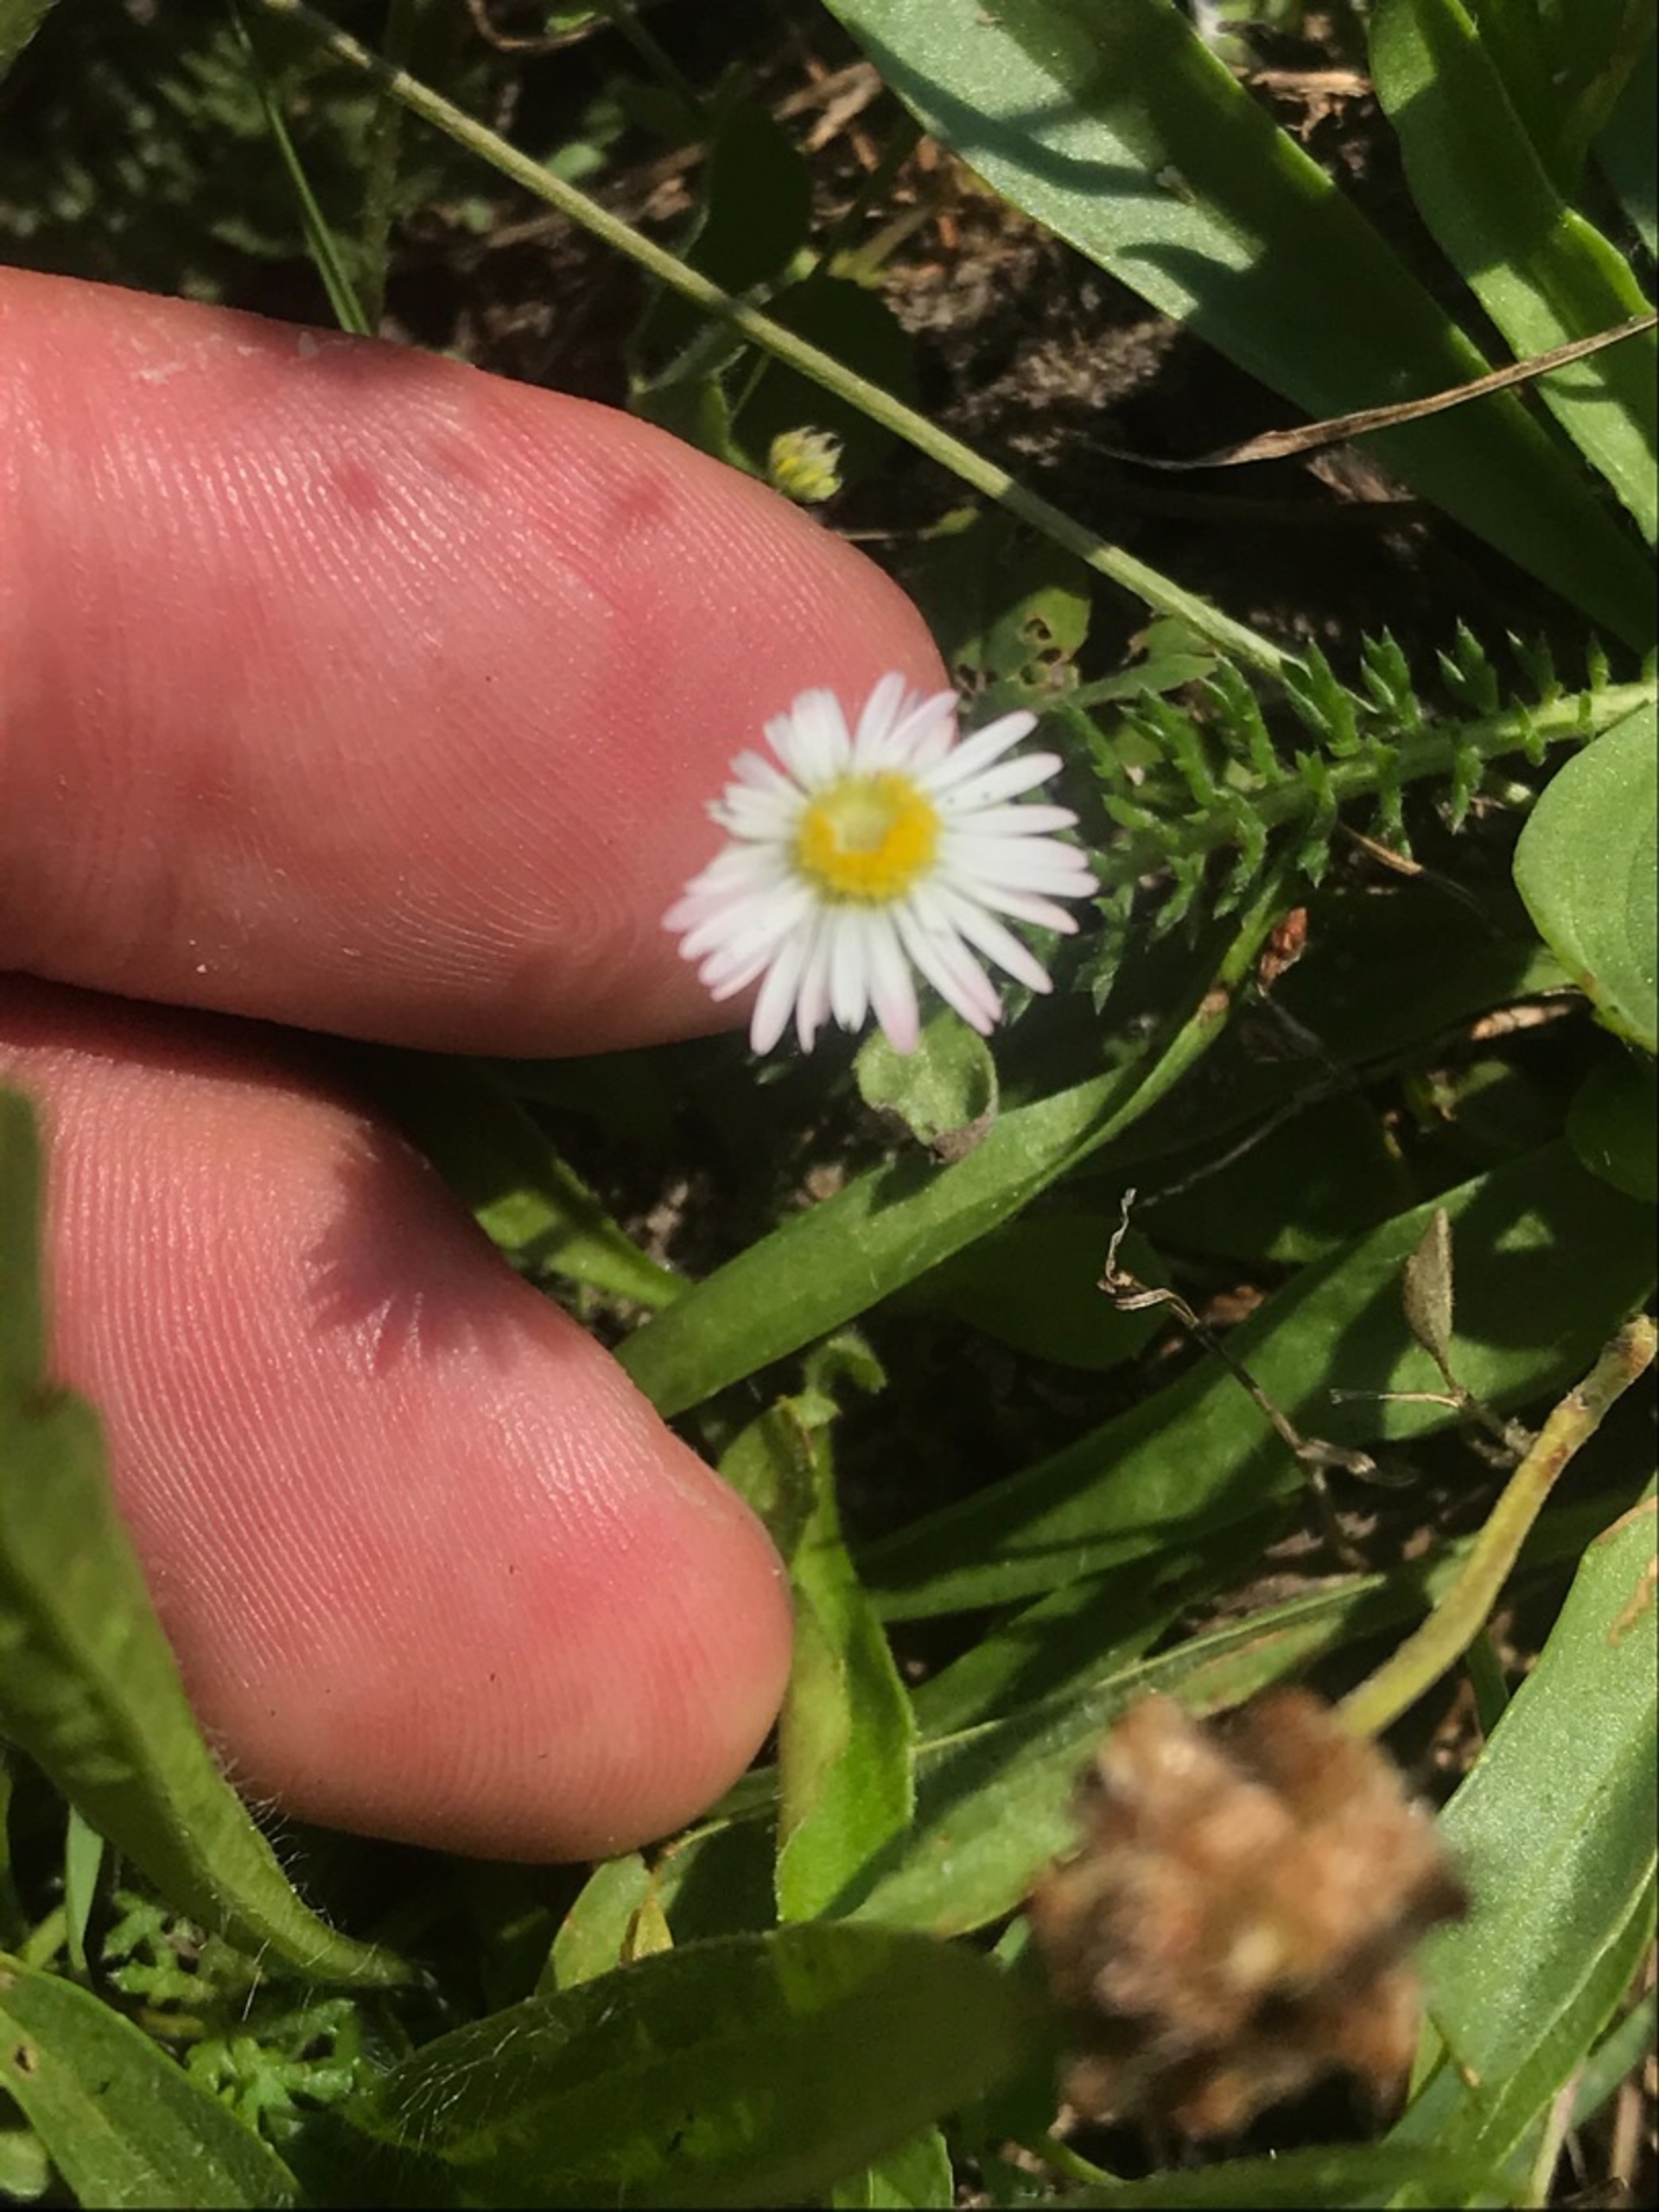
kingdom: Plantae
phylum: Tracheophyta
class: Magnoliopsida
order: Asterales
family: Asteraceae
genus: Bellis
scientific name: Bellis perennis
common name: Tusindfryd
